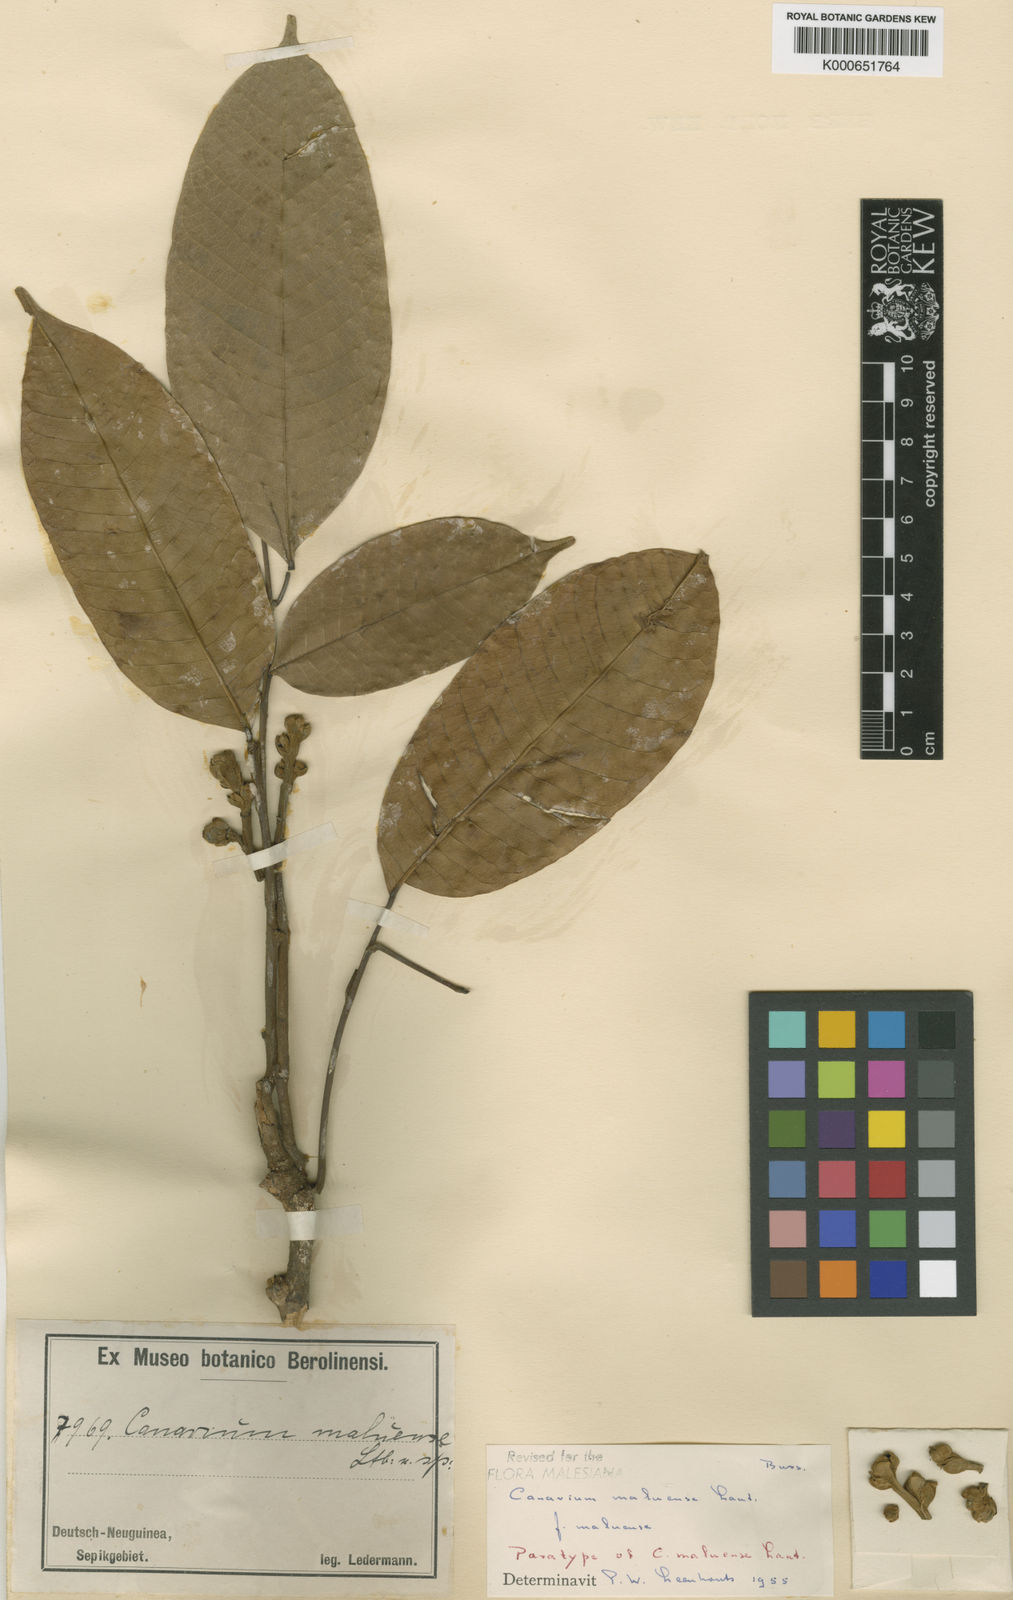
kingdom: Plantae
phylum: Tracheophyta
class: Magnoliopsida
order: Sapindales
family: Burseraceae
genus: Canarium
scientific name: Canarium maluense
